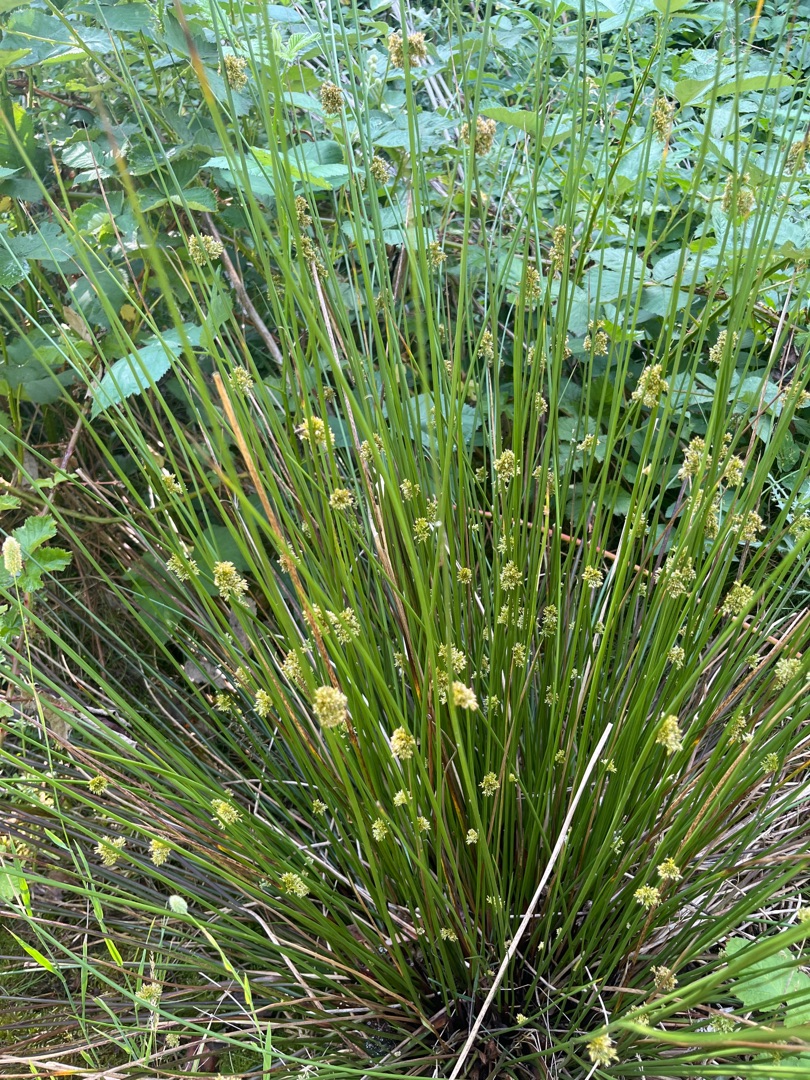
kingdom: Plantae
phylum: Tracheophyta
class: Liliopsida
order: Poales
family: Juncaceae
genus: Juncus
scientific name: Juncus effusus
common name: Lyse-siv
